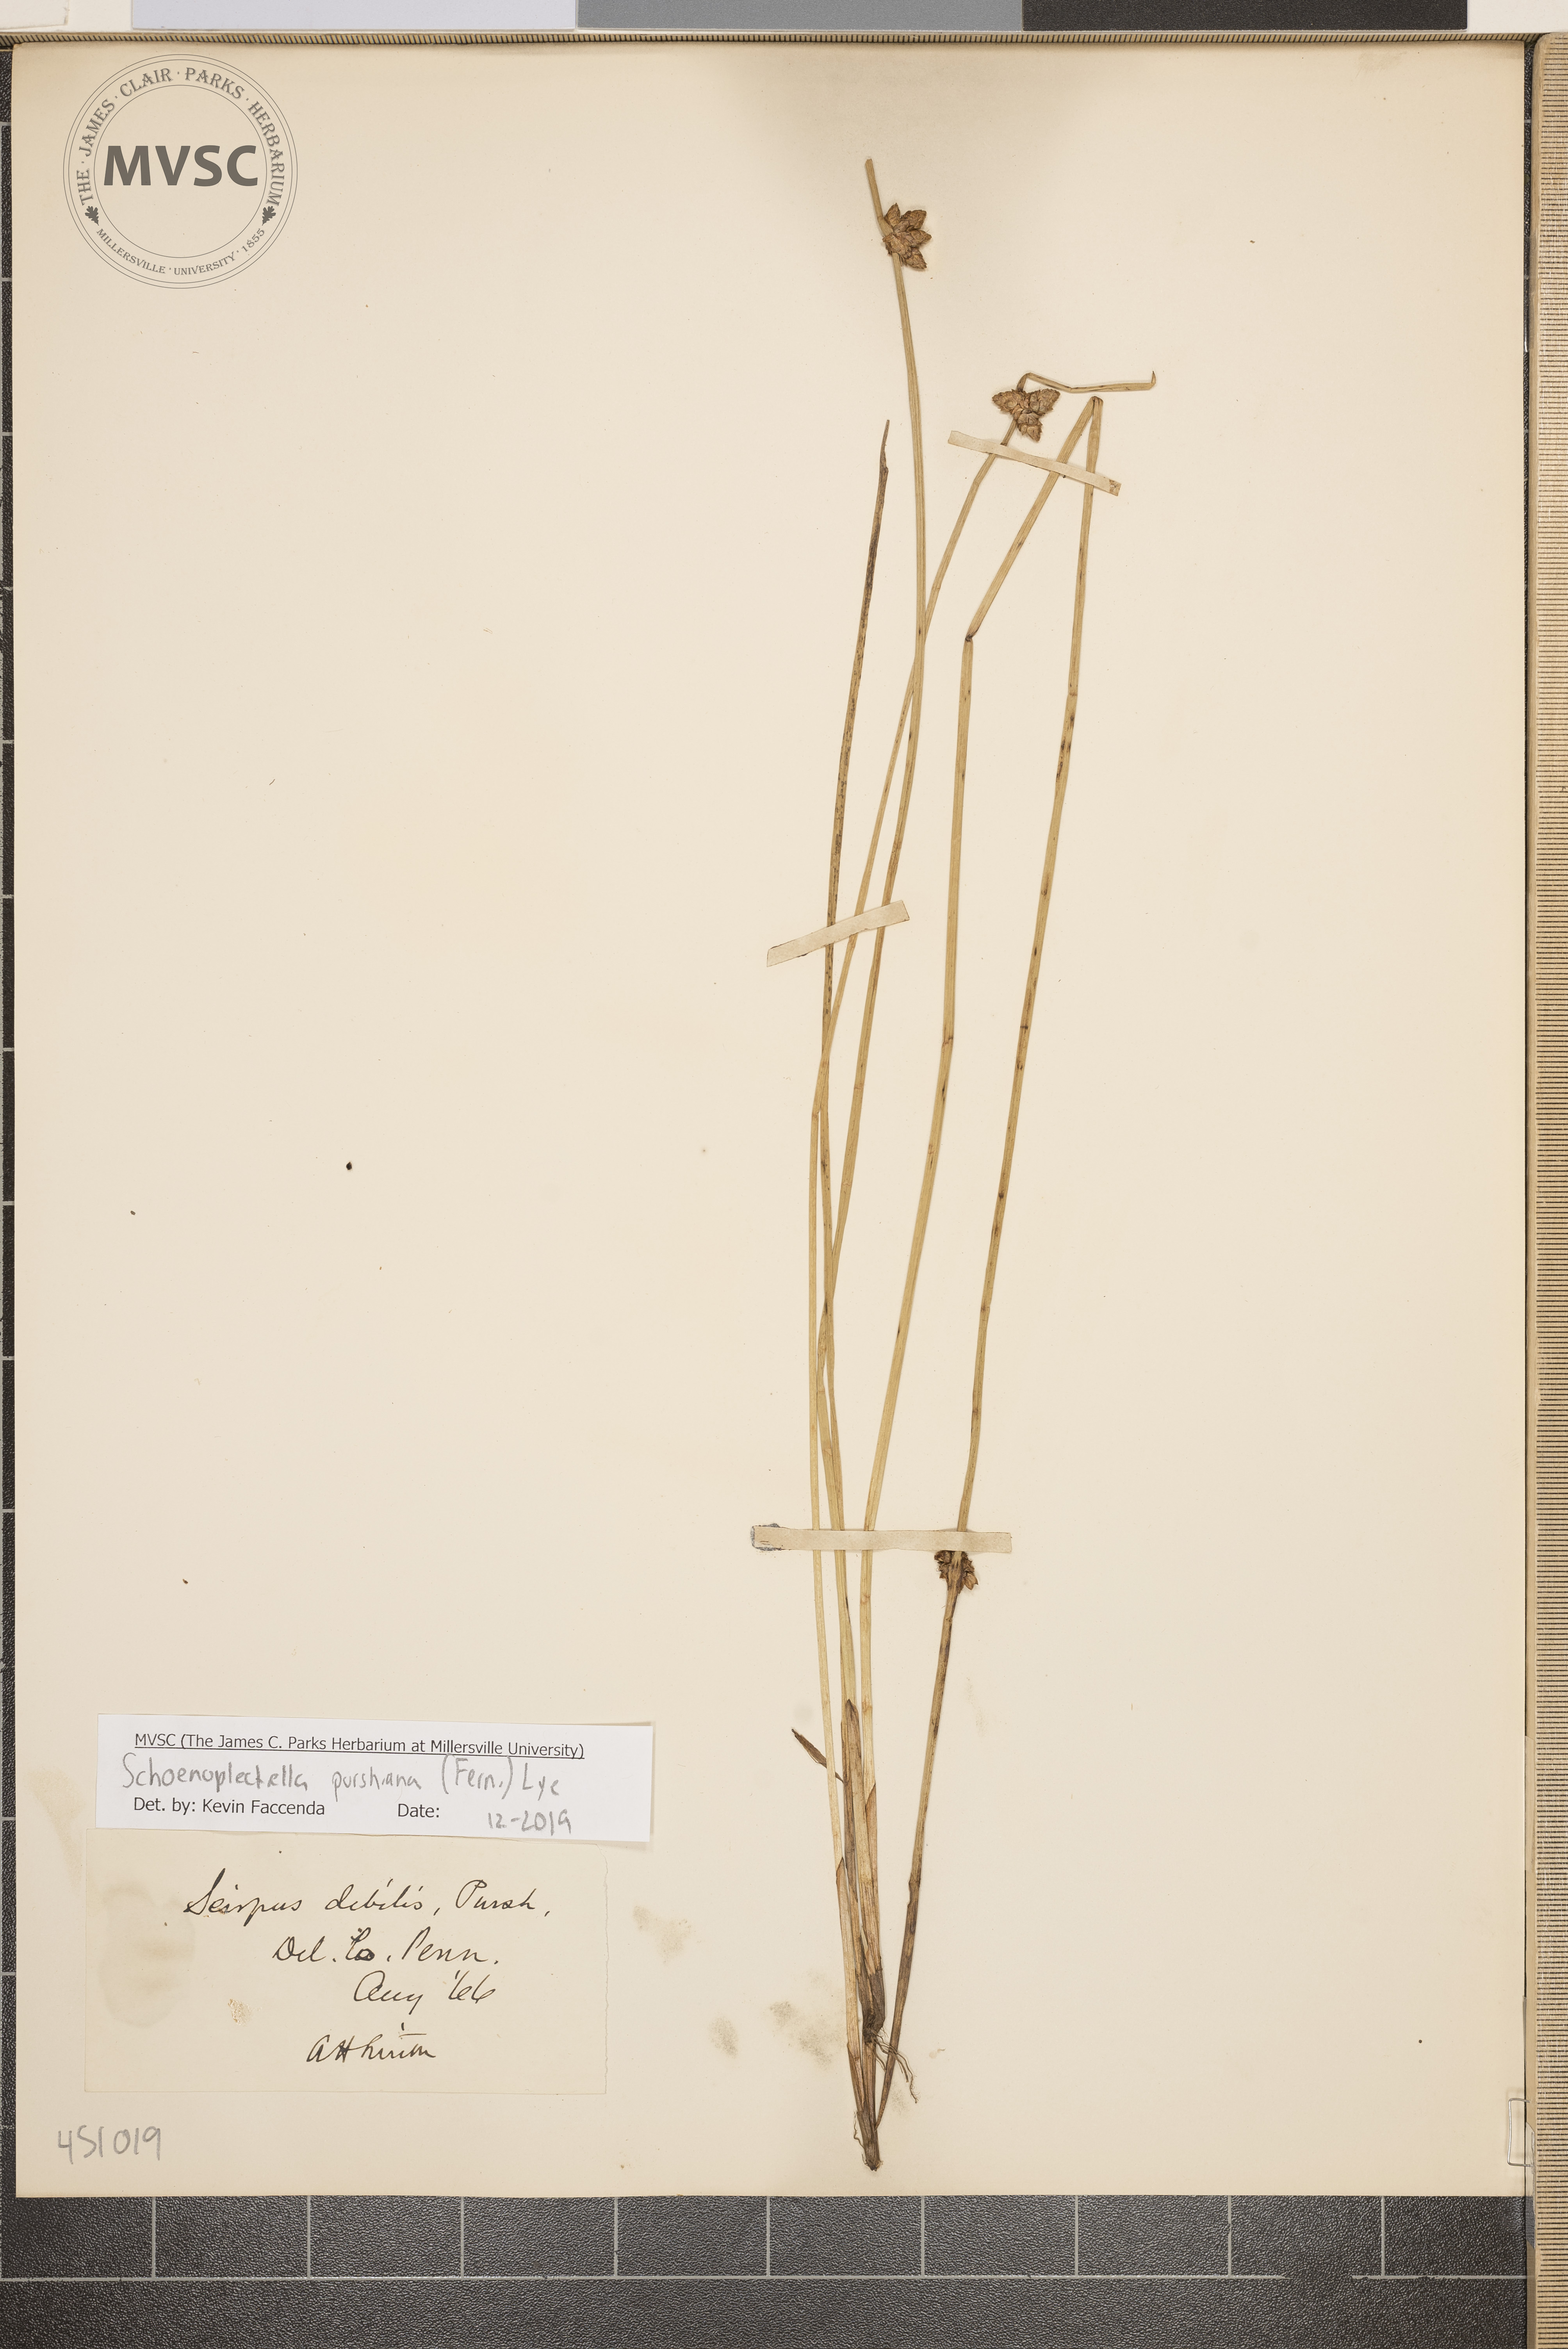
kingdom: Plantae
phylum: Tracheophyta
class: Liliopsida
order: Poales
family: Cyperaceae
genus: Schoenoplectiella
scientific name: Schoenoplectiella purshiana
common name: Weak-stalked bulrush
